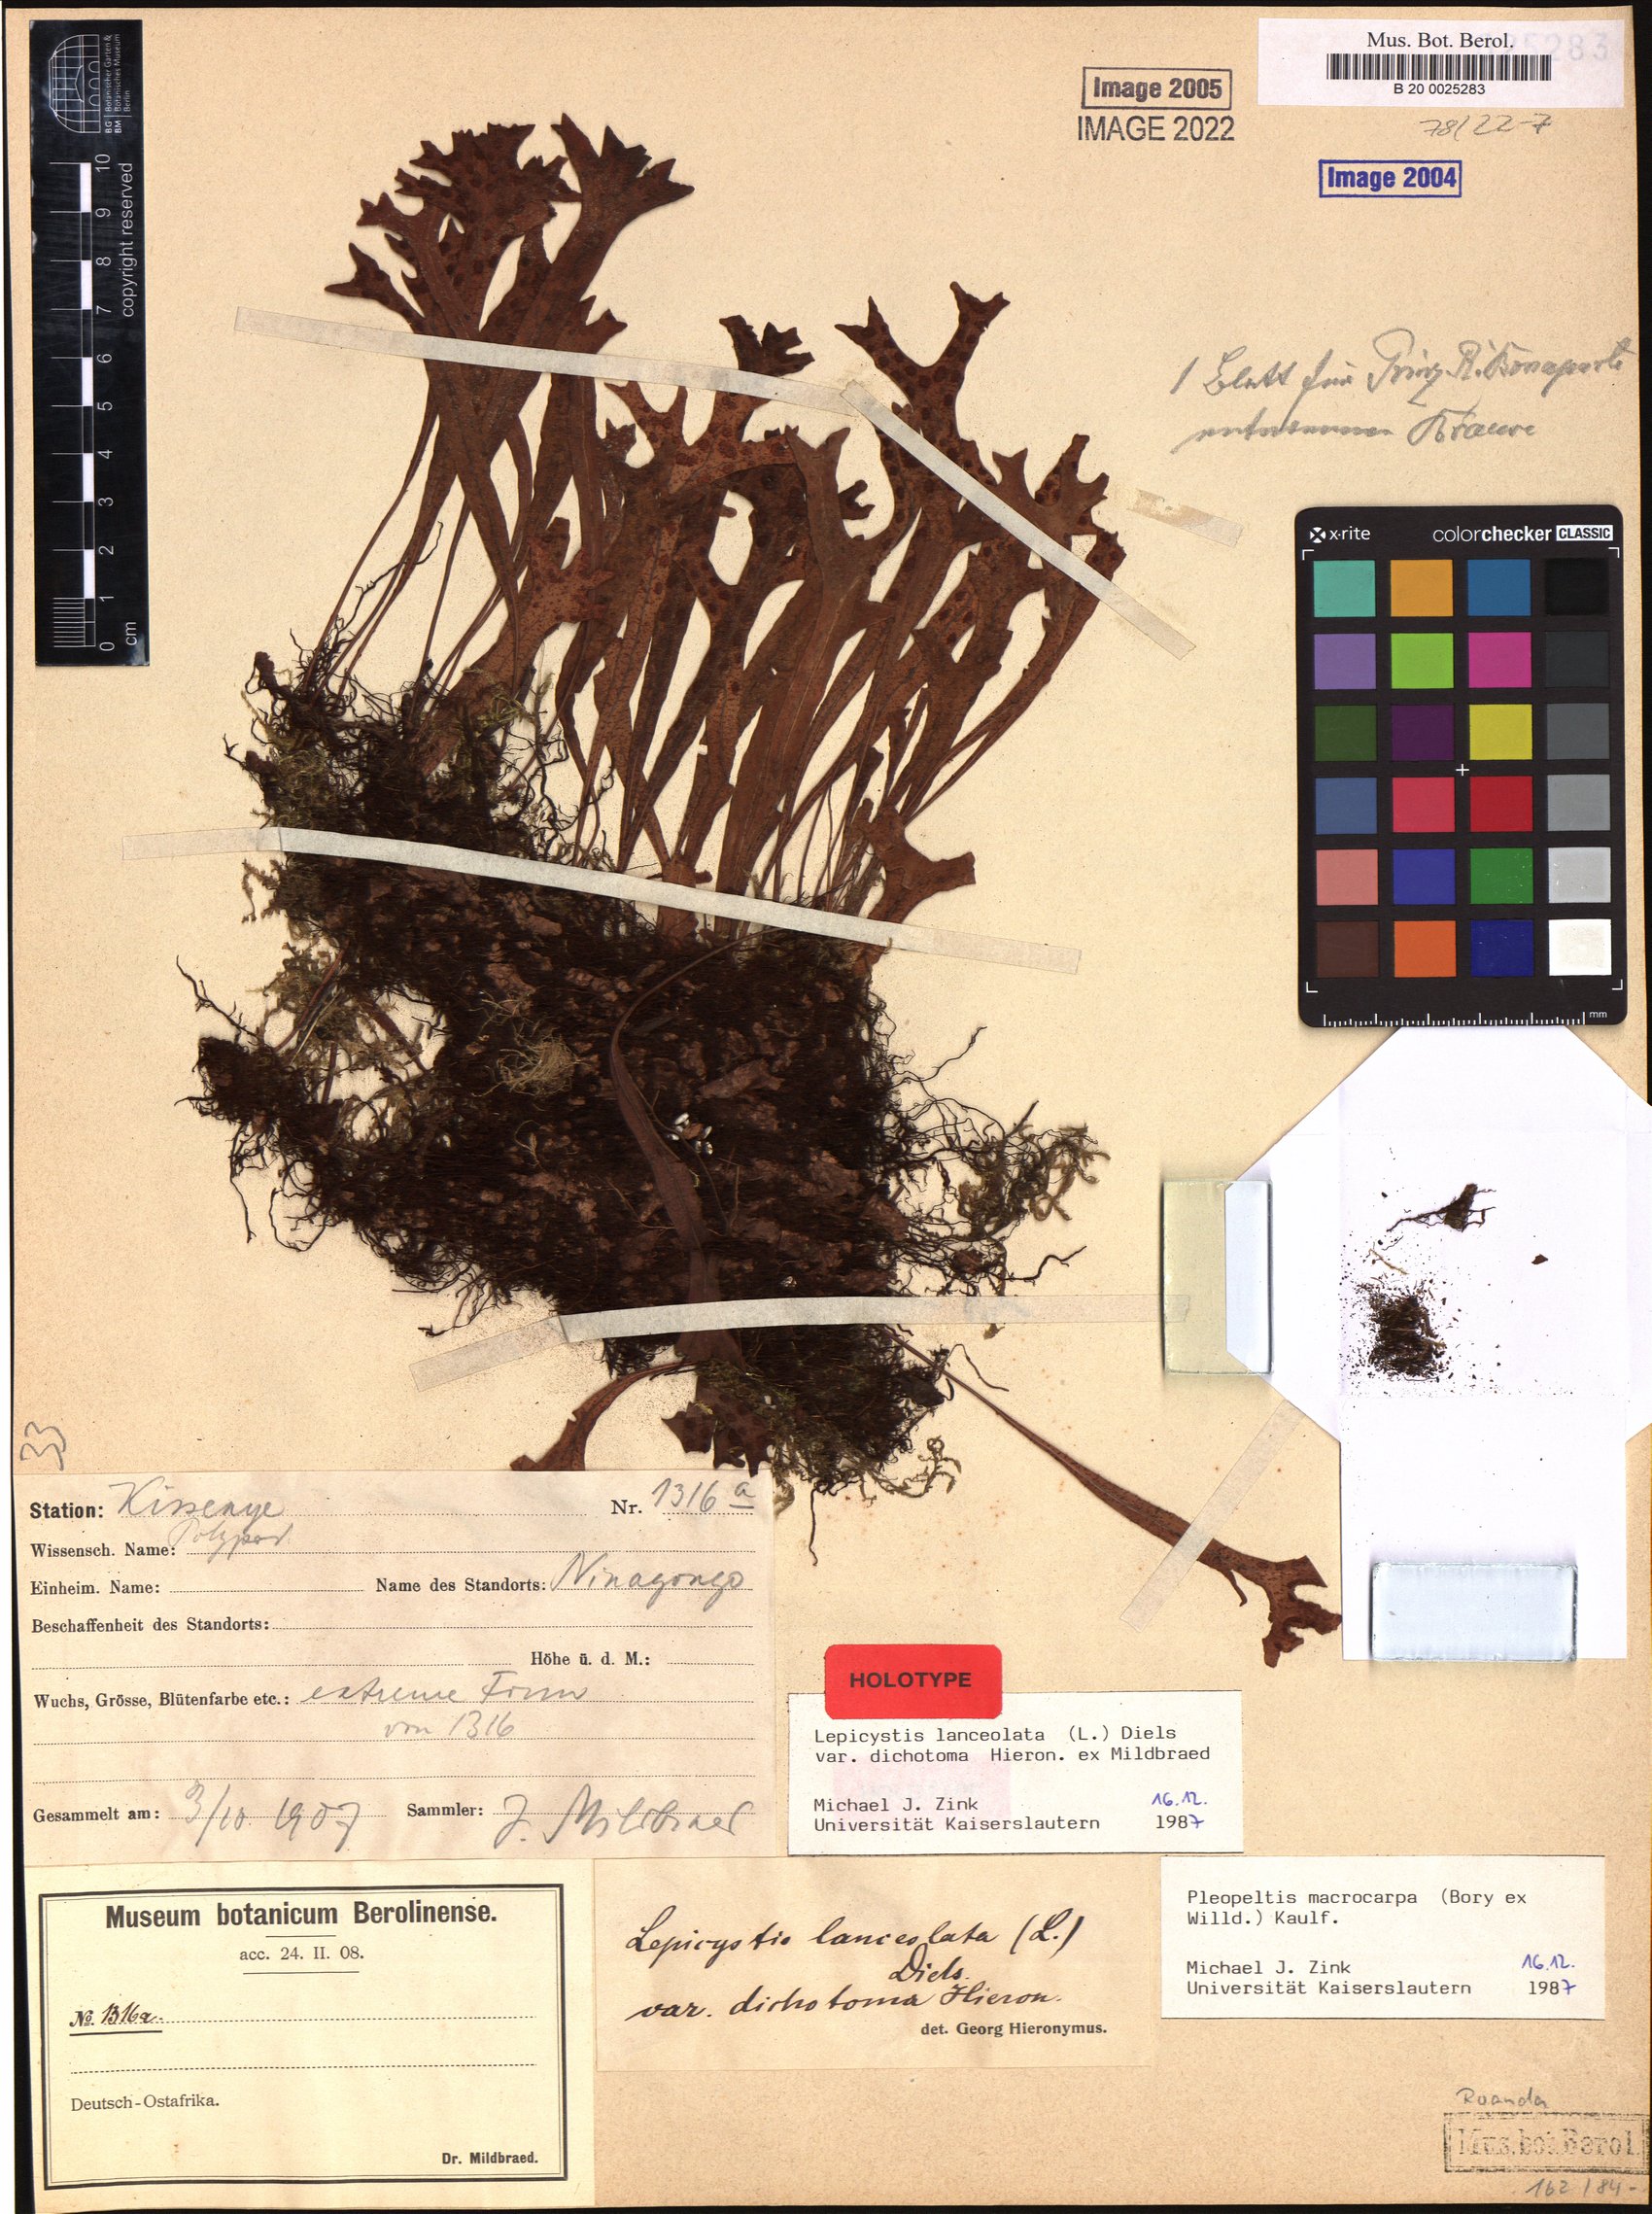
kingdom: Plantae
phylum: Tracheophyta
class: Polypodiopsida
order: Polypodiales
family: Polypodiaceae
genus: Pleopeltis
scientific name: Pleopeltis macrocarpa
